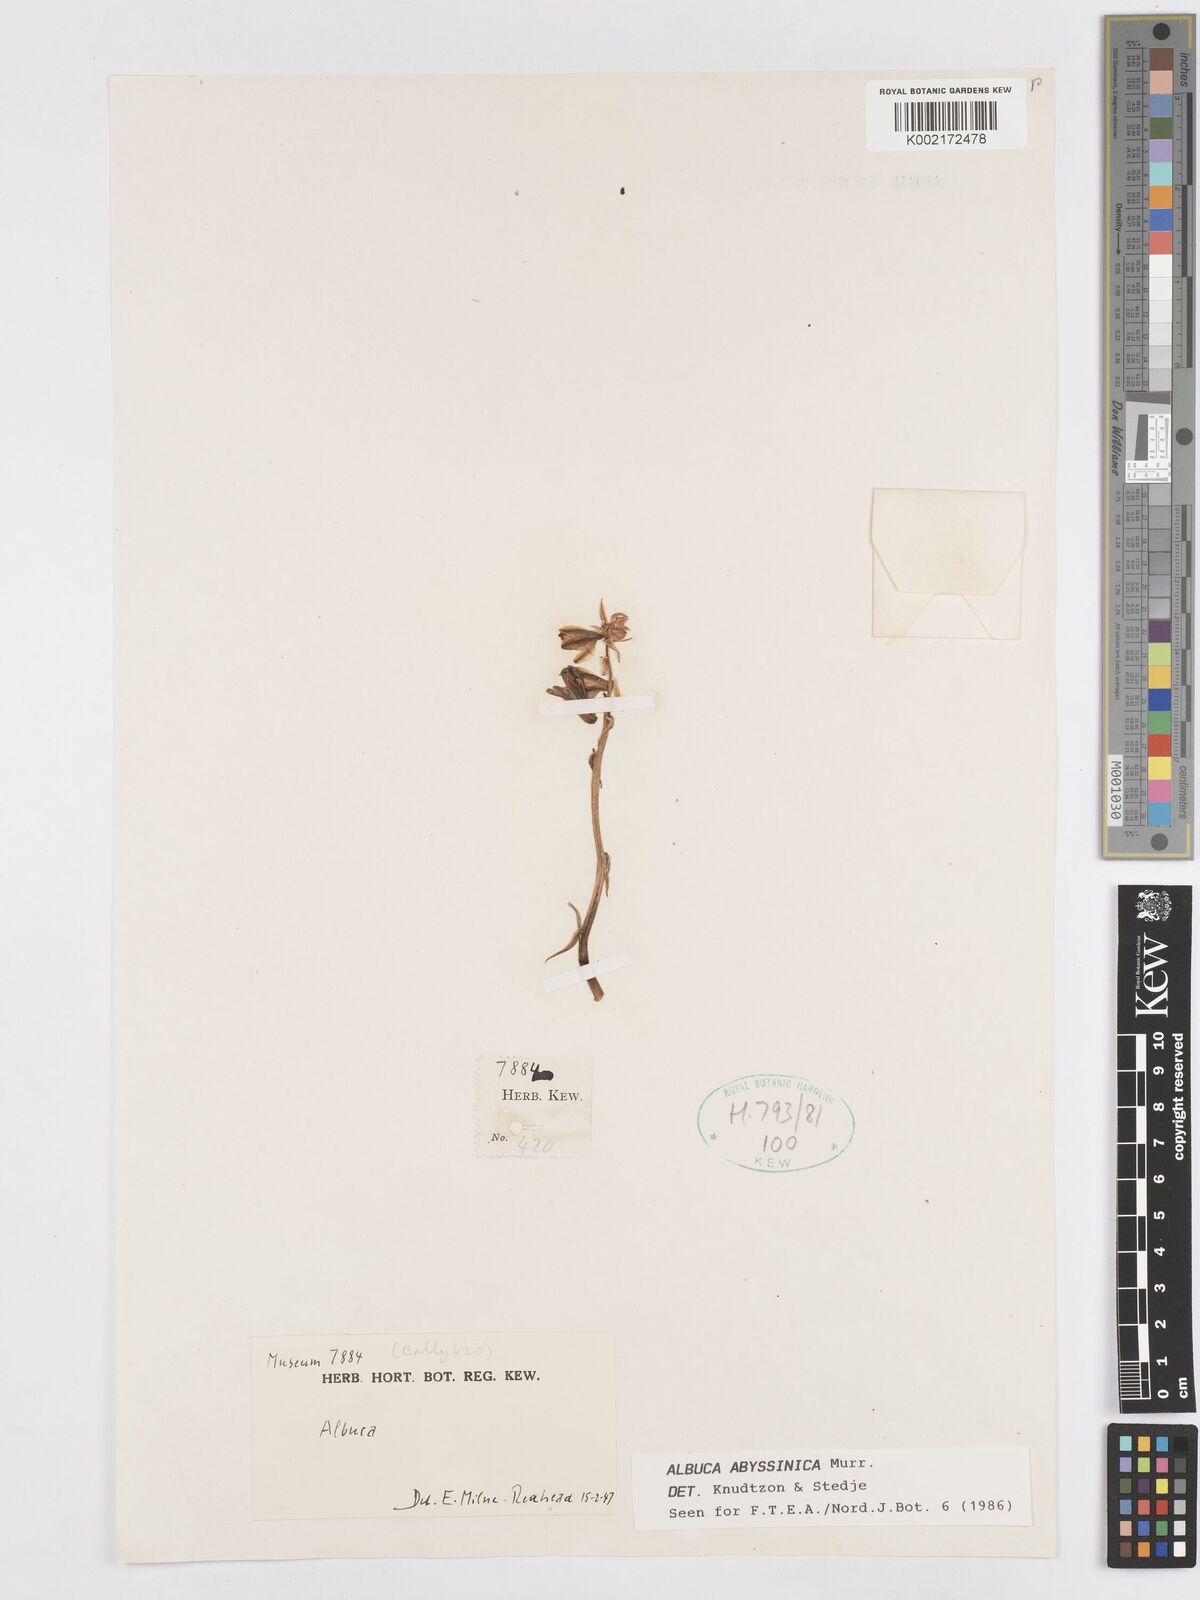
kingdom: Plantae
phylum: Tracheophyta
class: Liliopsida
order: Asparagales
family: Asparagaceae
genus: Albuca
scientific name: Albuca abyssinica
